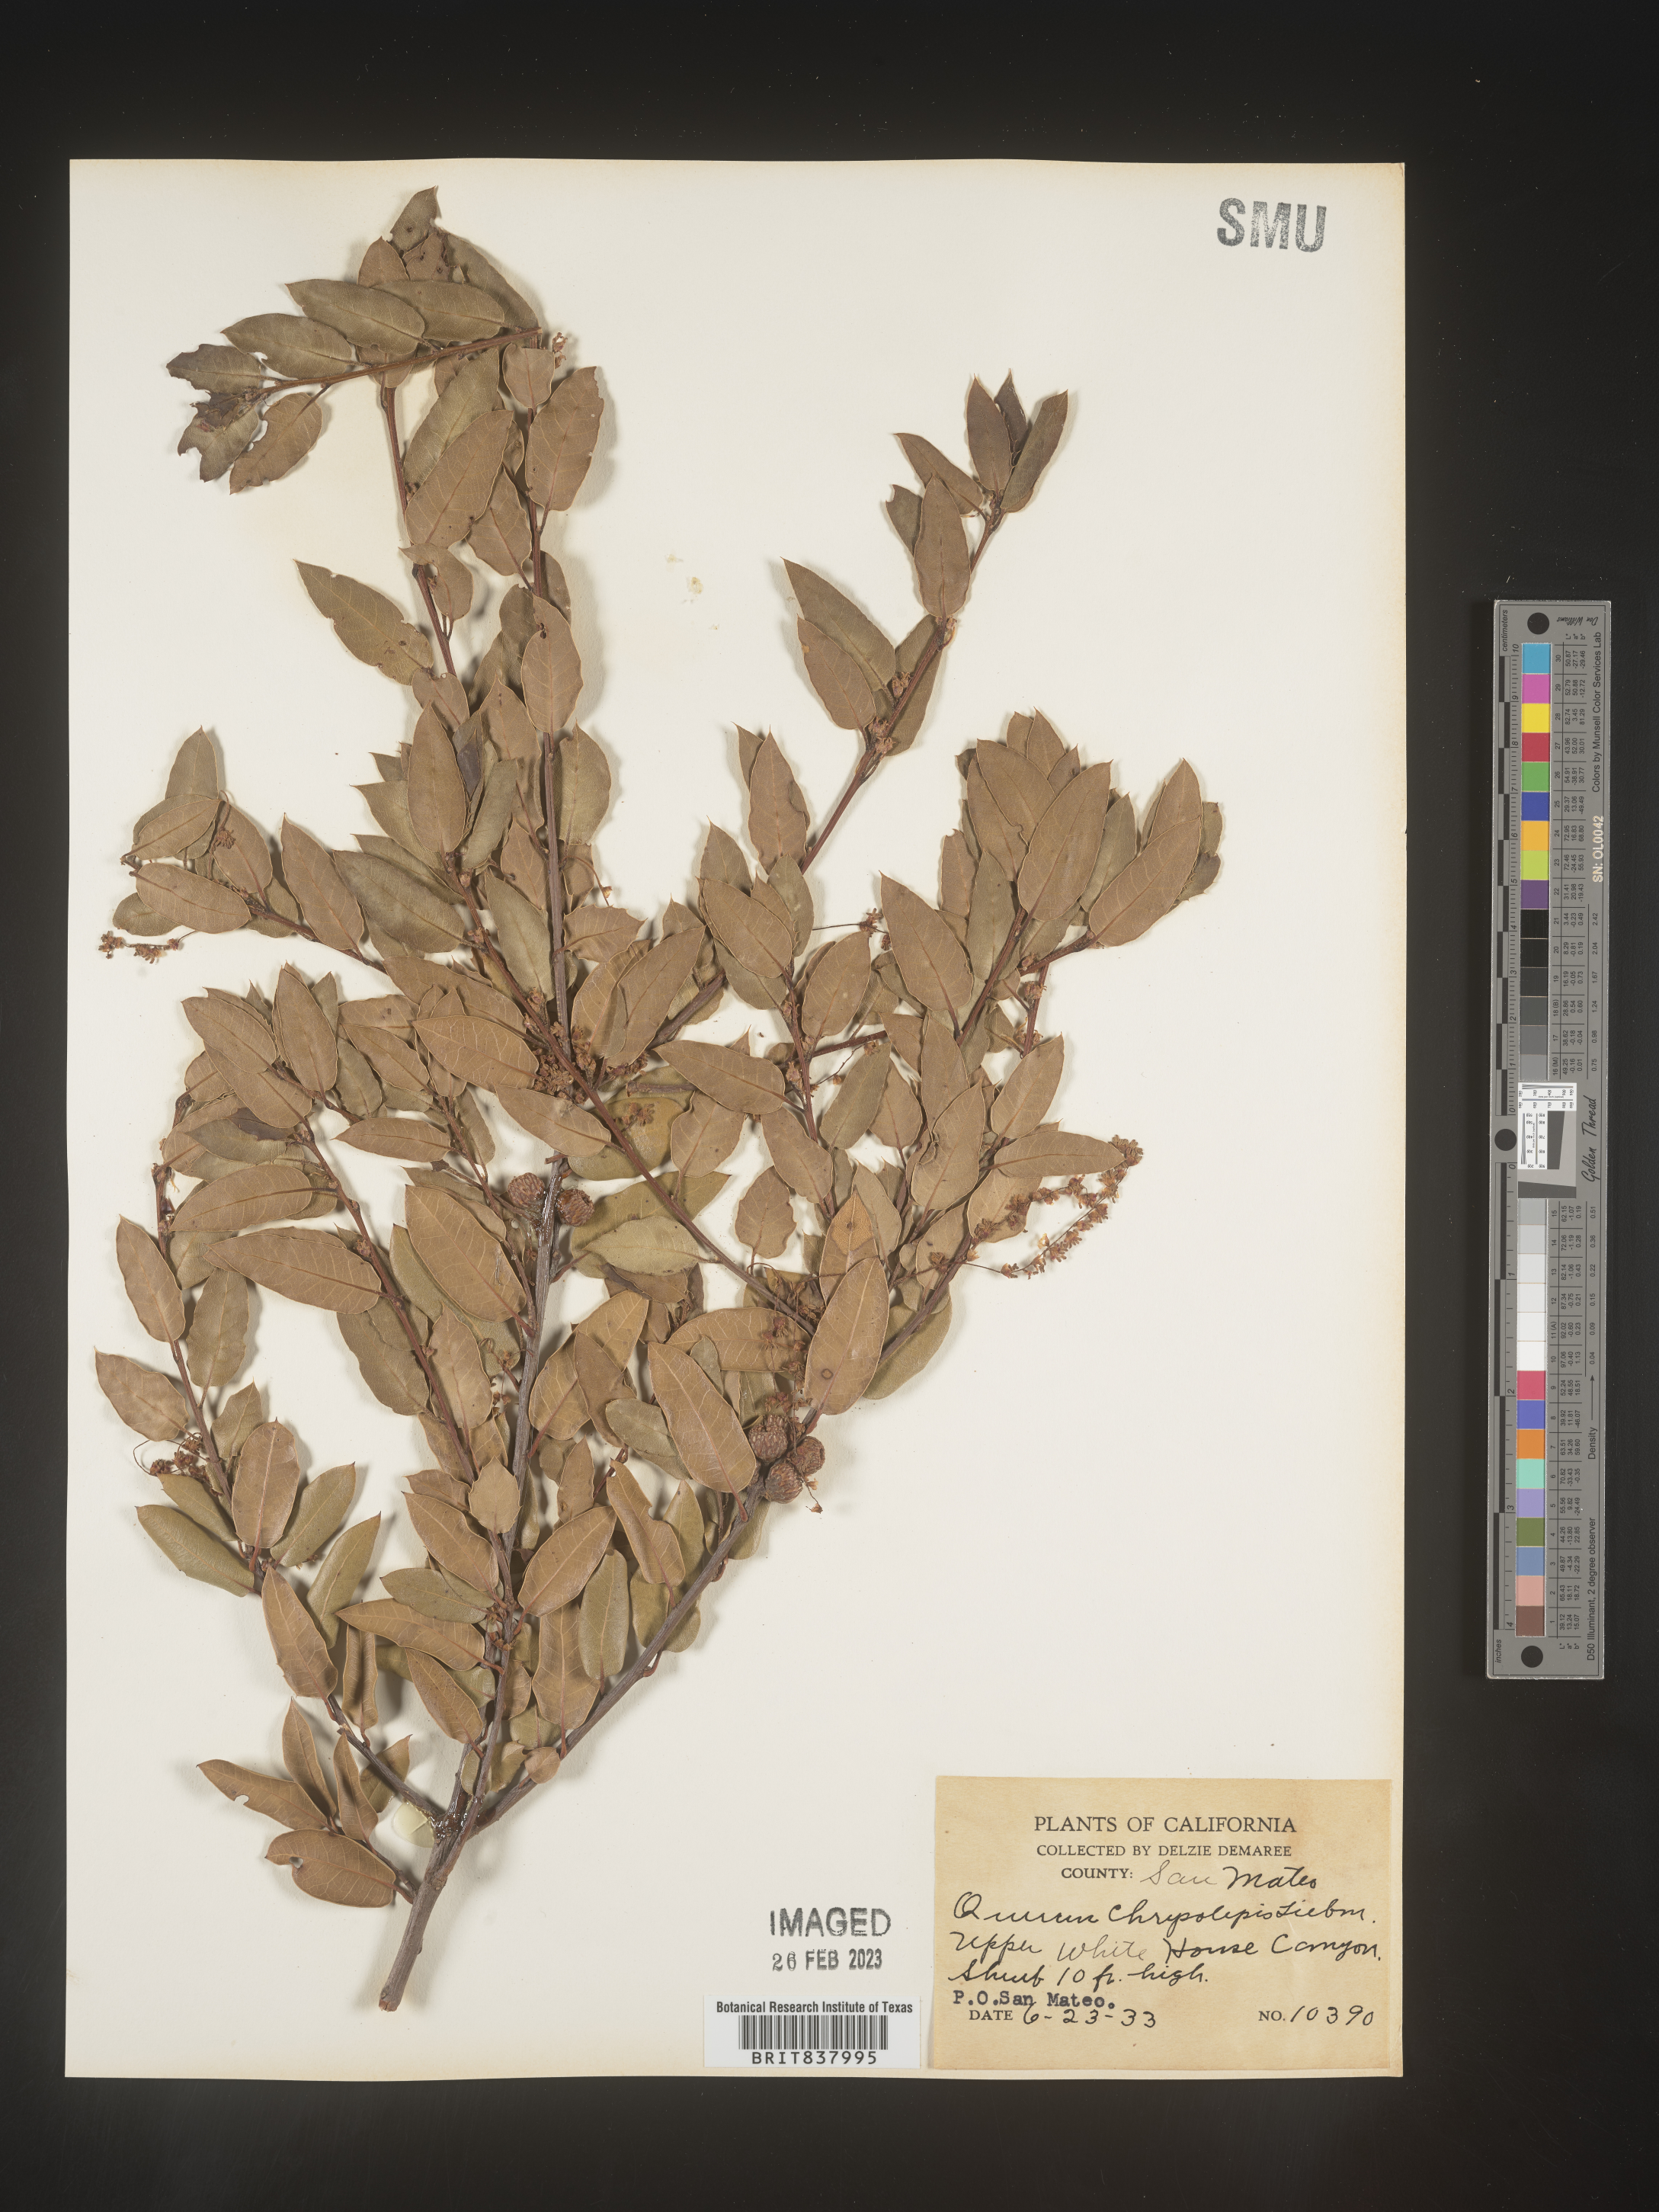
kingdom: Plantae
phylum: Tracheophyta
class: Magnoliopsida
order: Fagales
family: Fagaceae
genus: Quercus
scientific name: Quercus chrysolepis
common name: Canyon live oak
